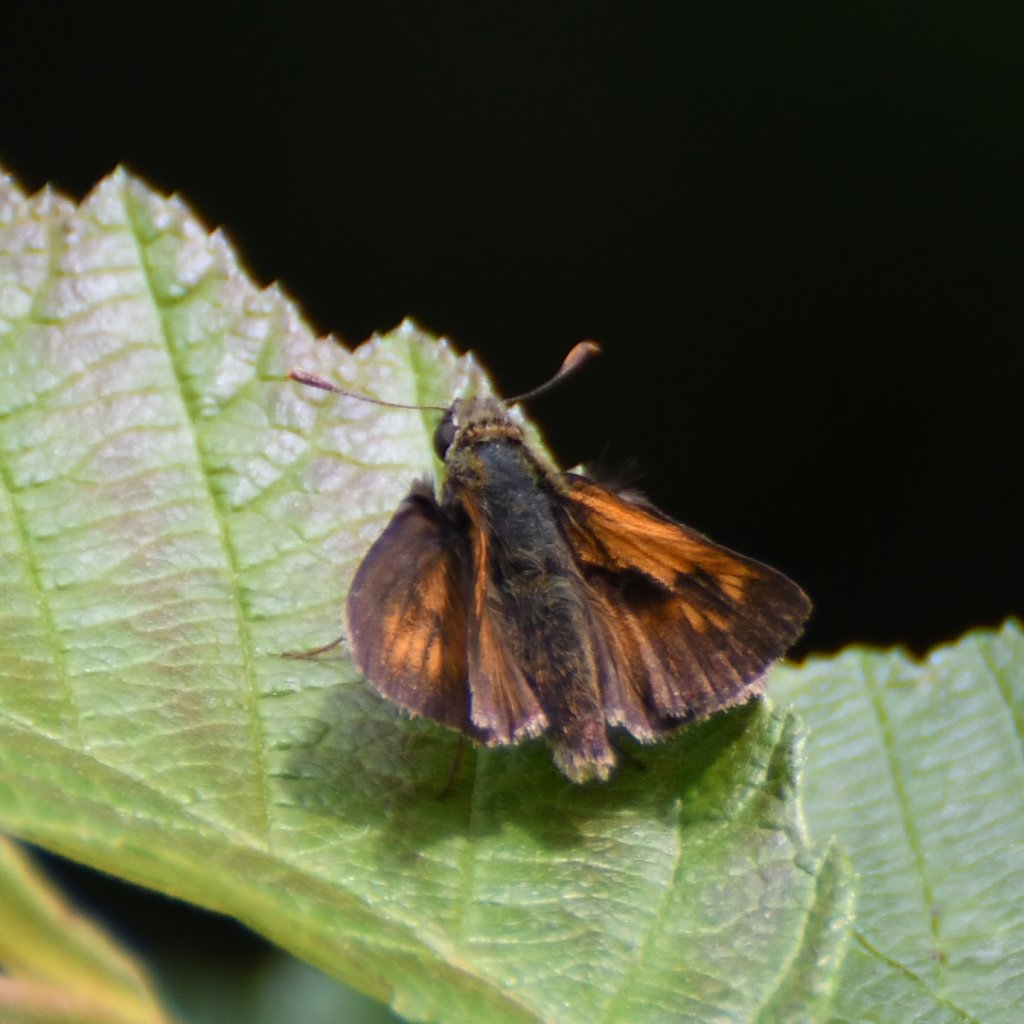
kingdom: Animalia
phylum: Arthropoda
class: Insecta
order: Lepidoptera
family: Hesperiidae
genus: Polites
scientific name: Polites
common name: Long Dash Skipper
